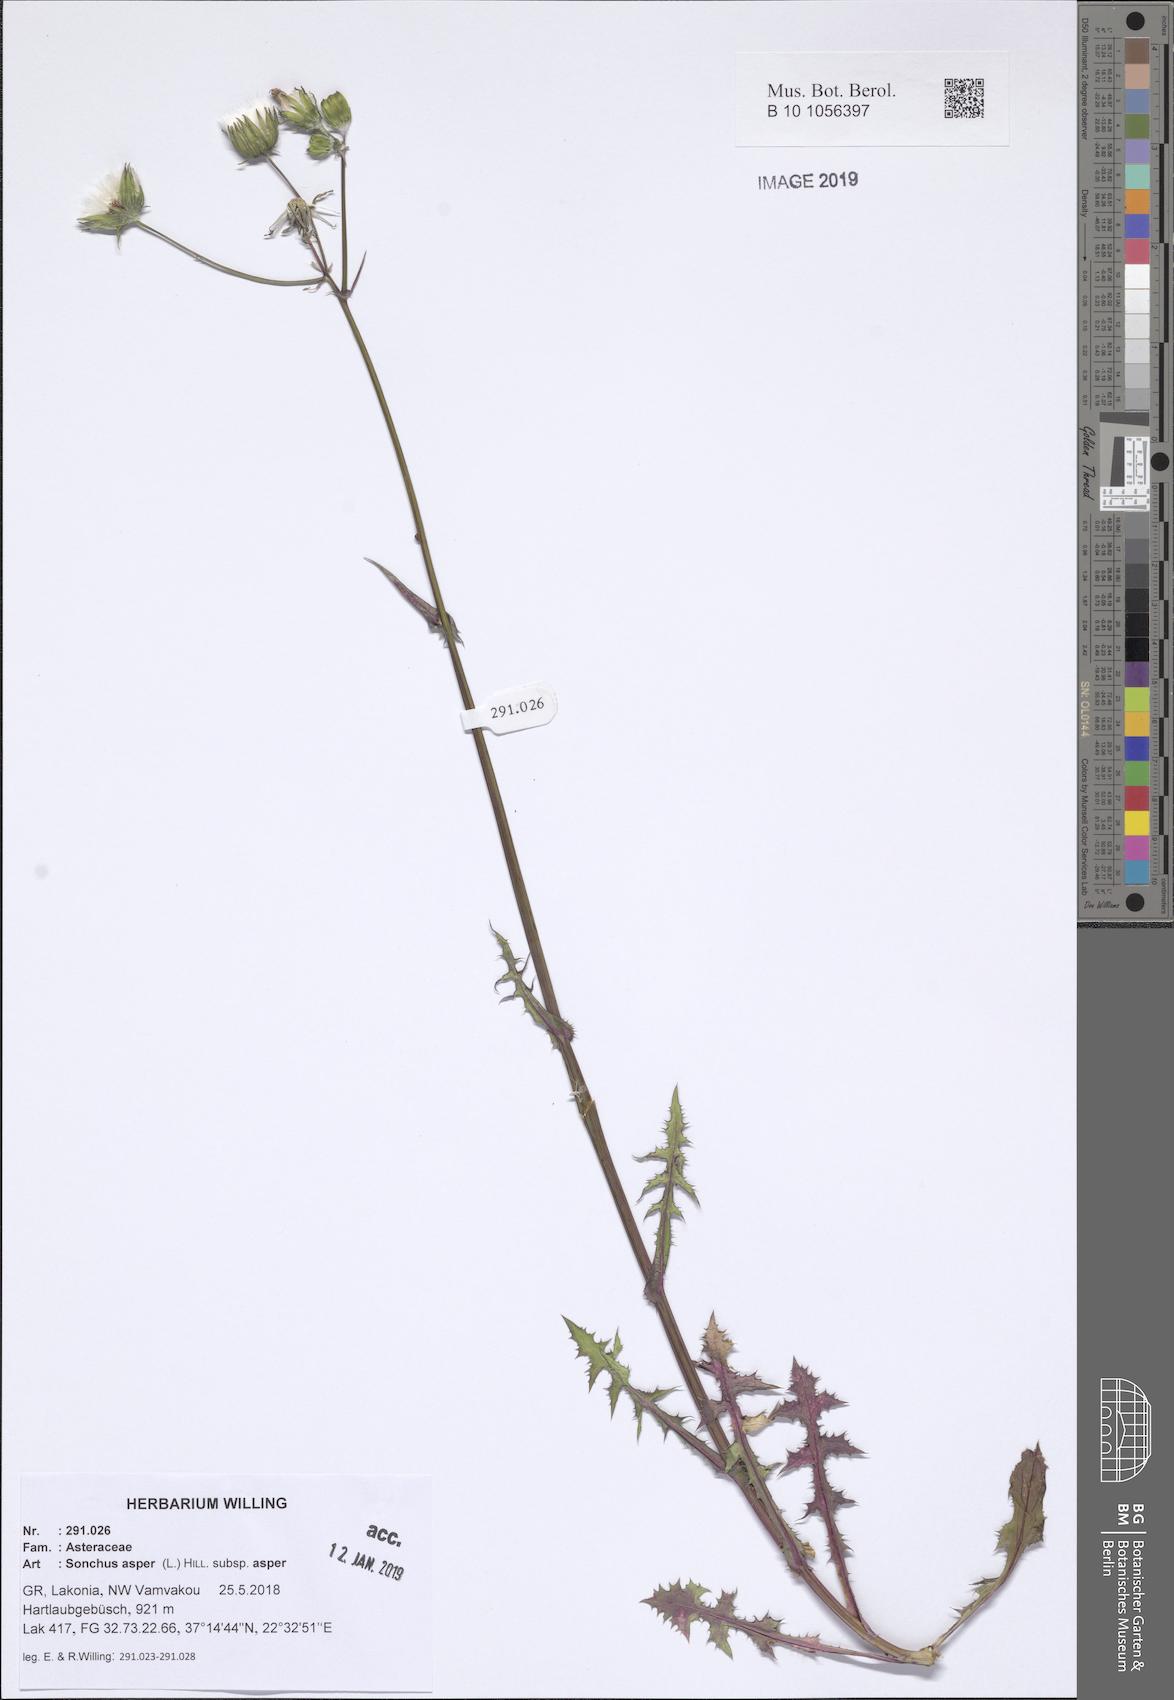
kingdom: Plantae
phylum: Tracheophyta
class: Magnoliopsida
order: Asterales
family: Asteraceae
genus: Sonchus
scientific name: Sonchus asper
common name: Prickly sow-thistle
